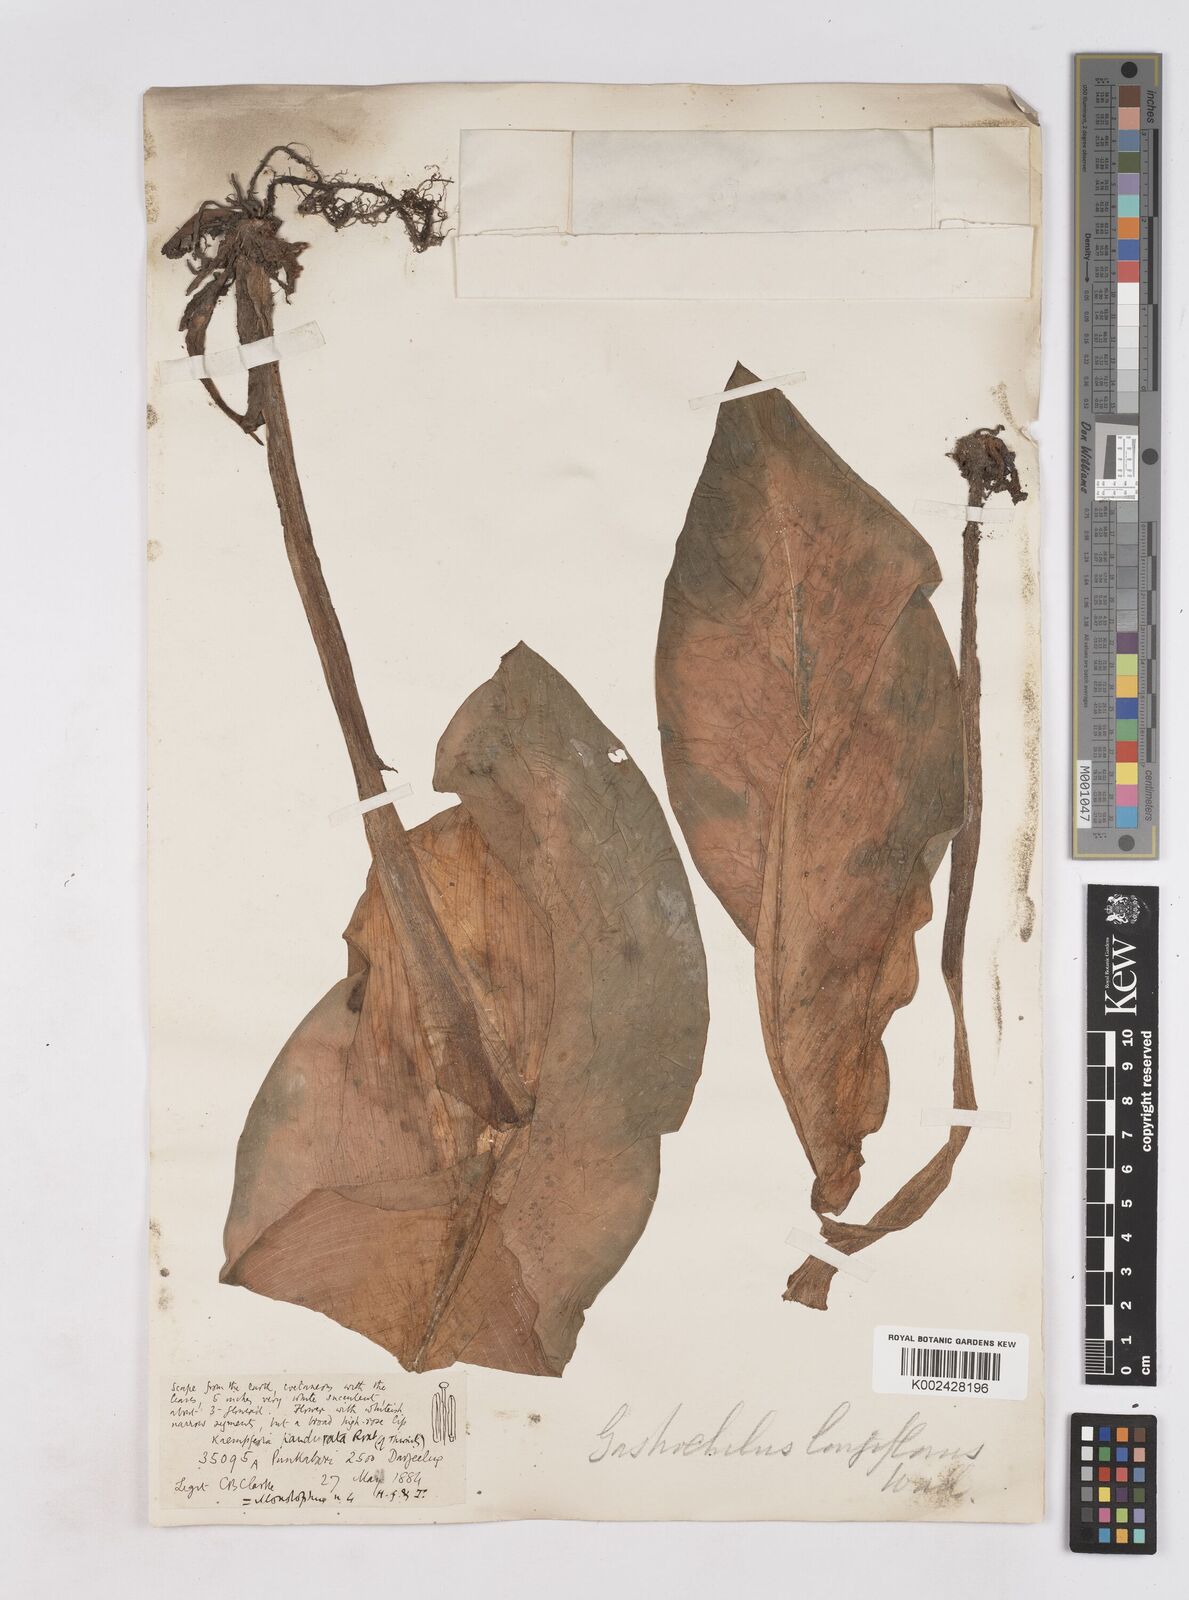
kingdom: Plantae
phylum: Tracheophyta
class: Liliopsida
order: Zingiberales
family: Zingiberaceae
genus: Boesenbergia
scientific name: Boesenbergia longiflora
